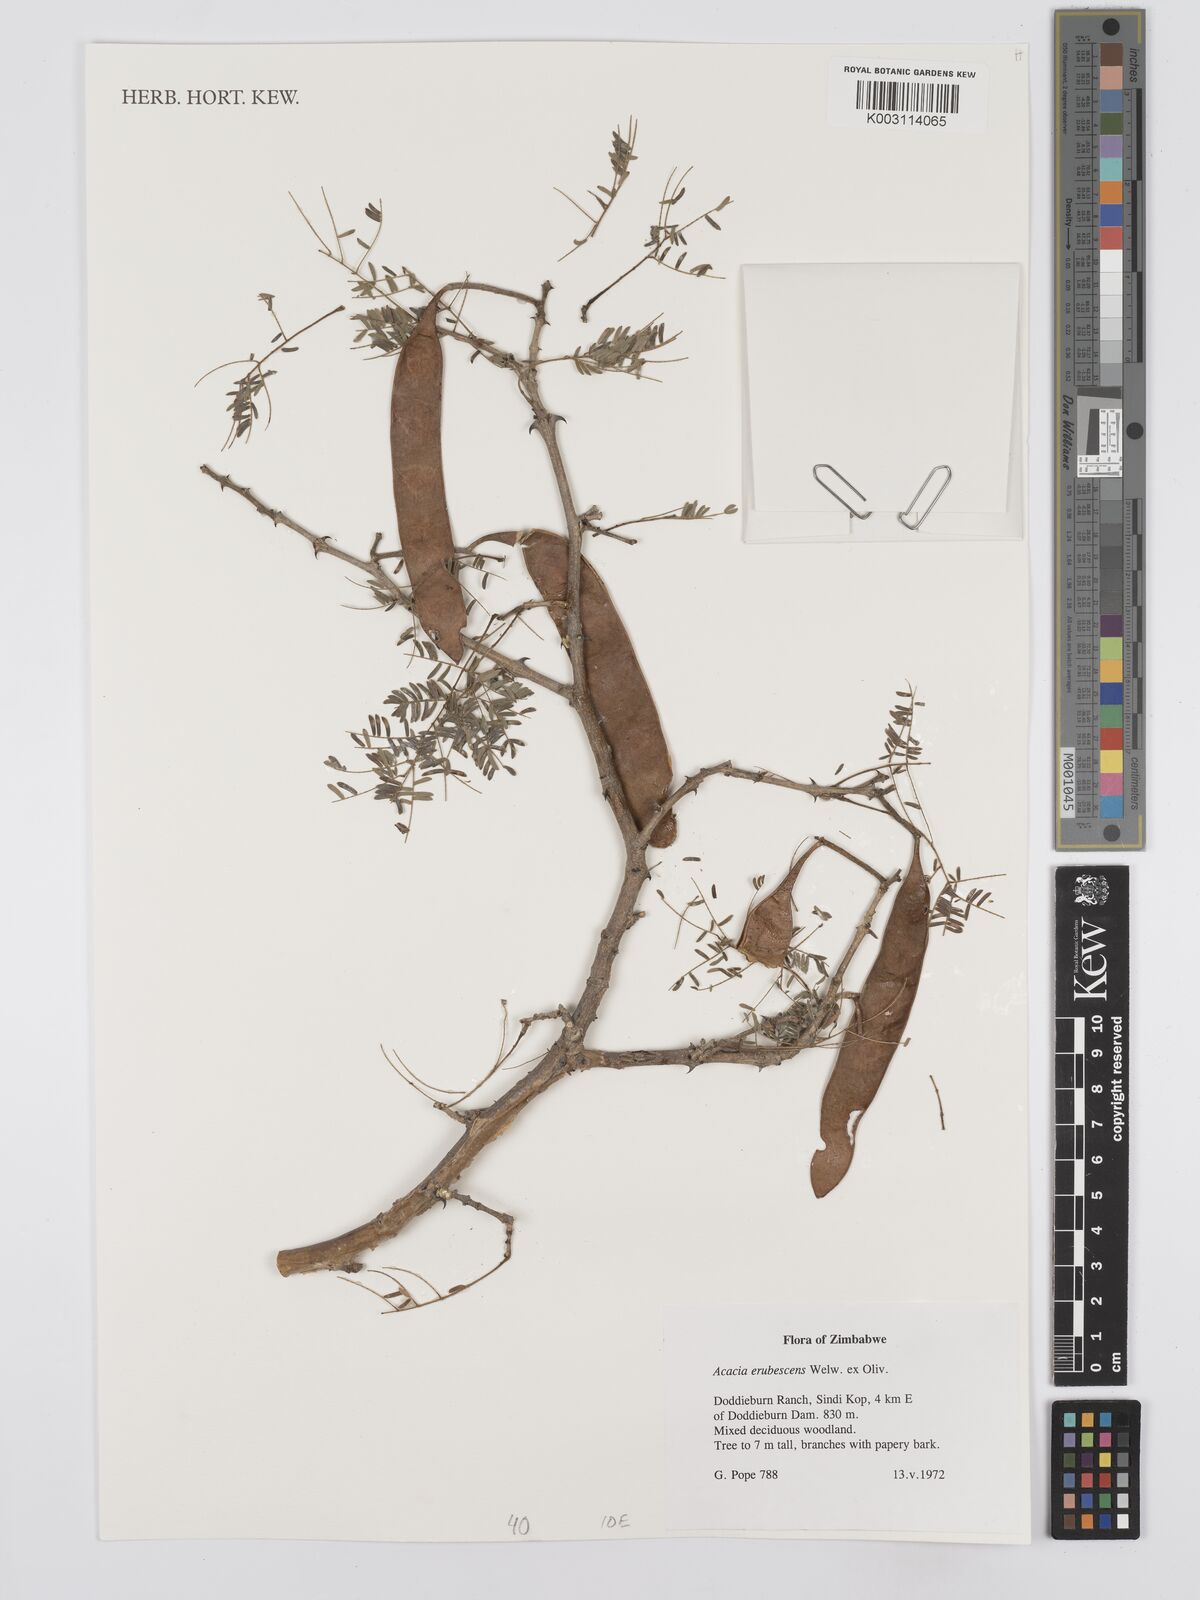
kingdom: Plantae
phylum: Tracheophyta
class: Magnoliopsida
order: Fabales
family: Fabaceae
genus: Senegalia
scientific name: Senegalia erubescens
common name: Bluethorn
